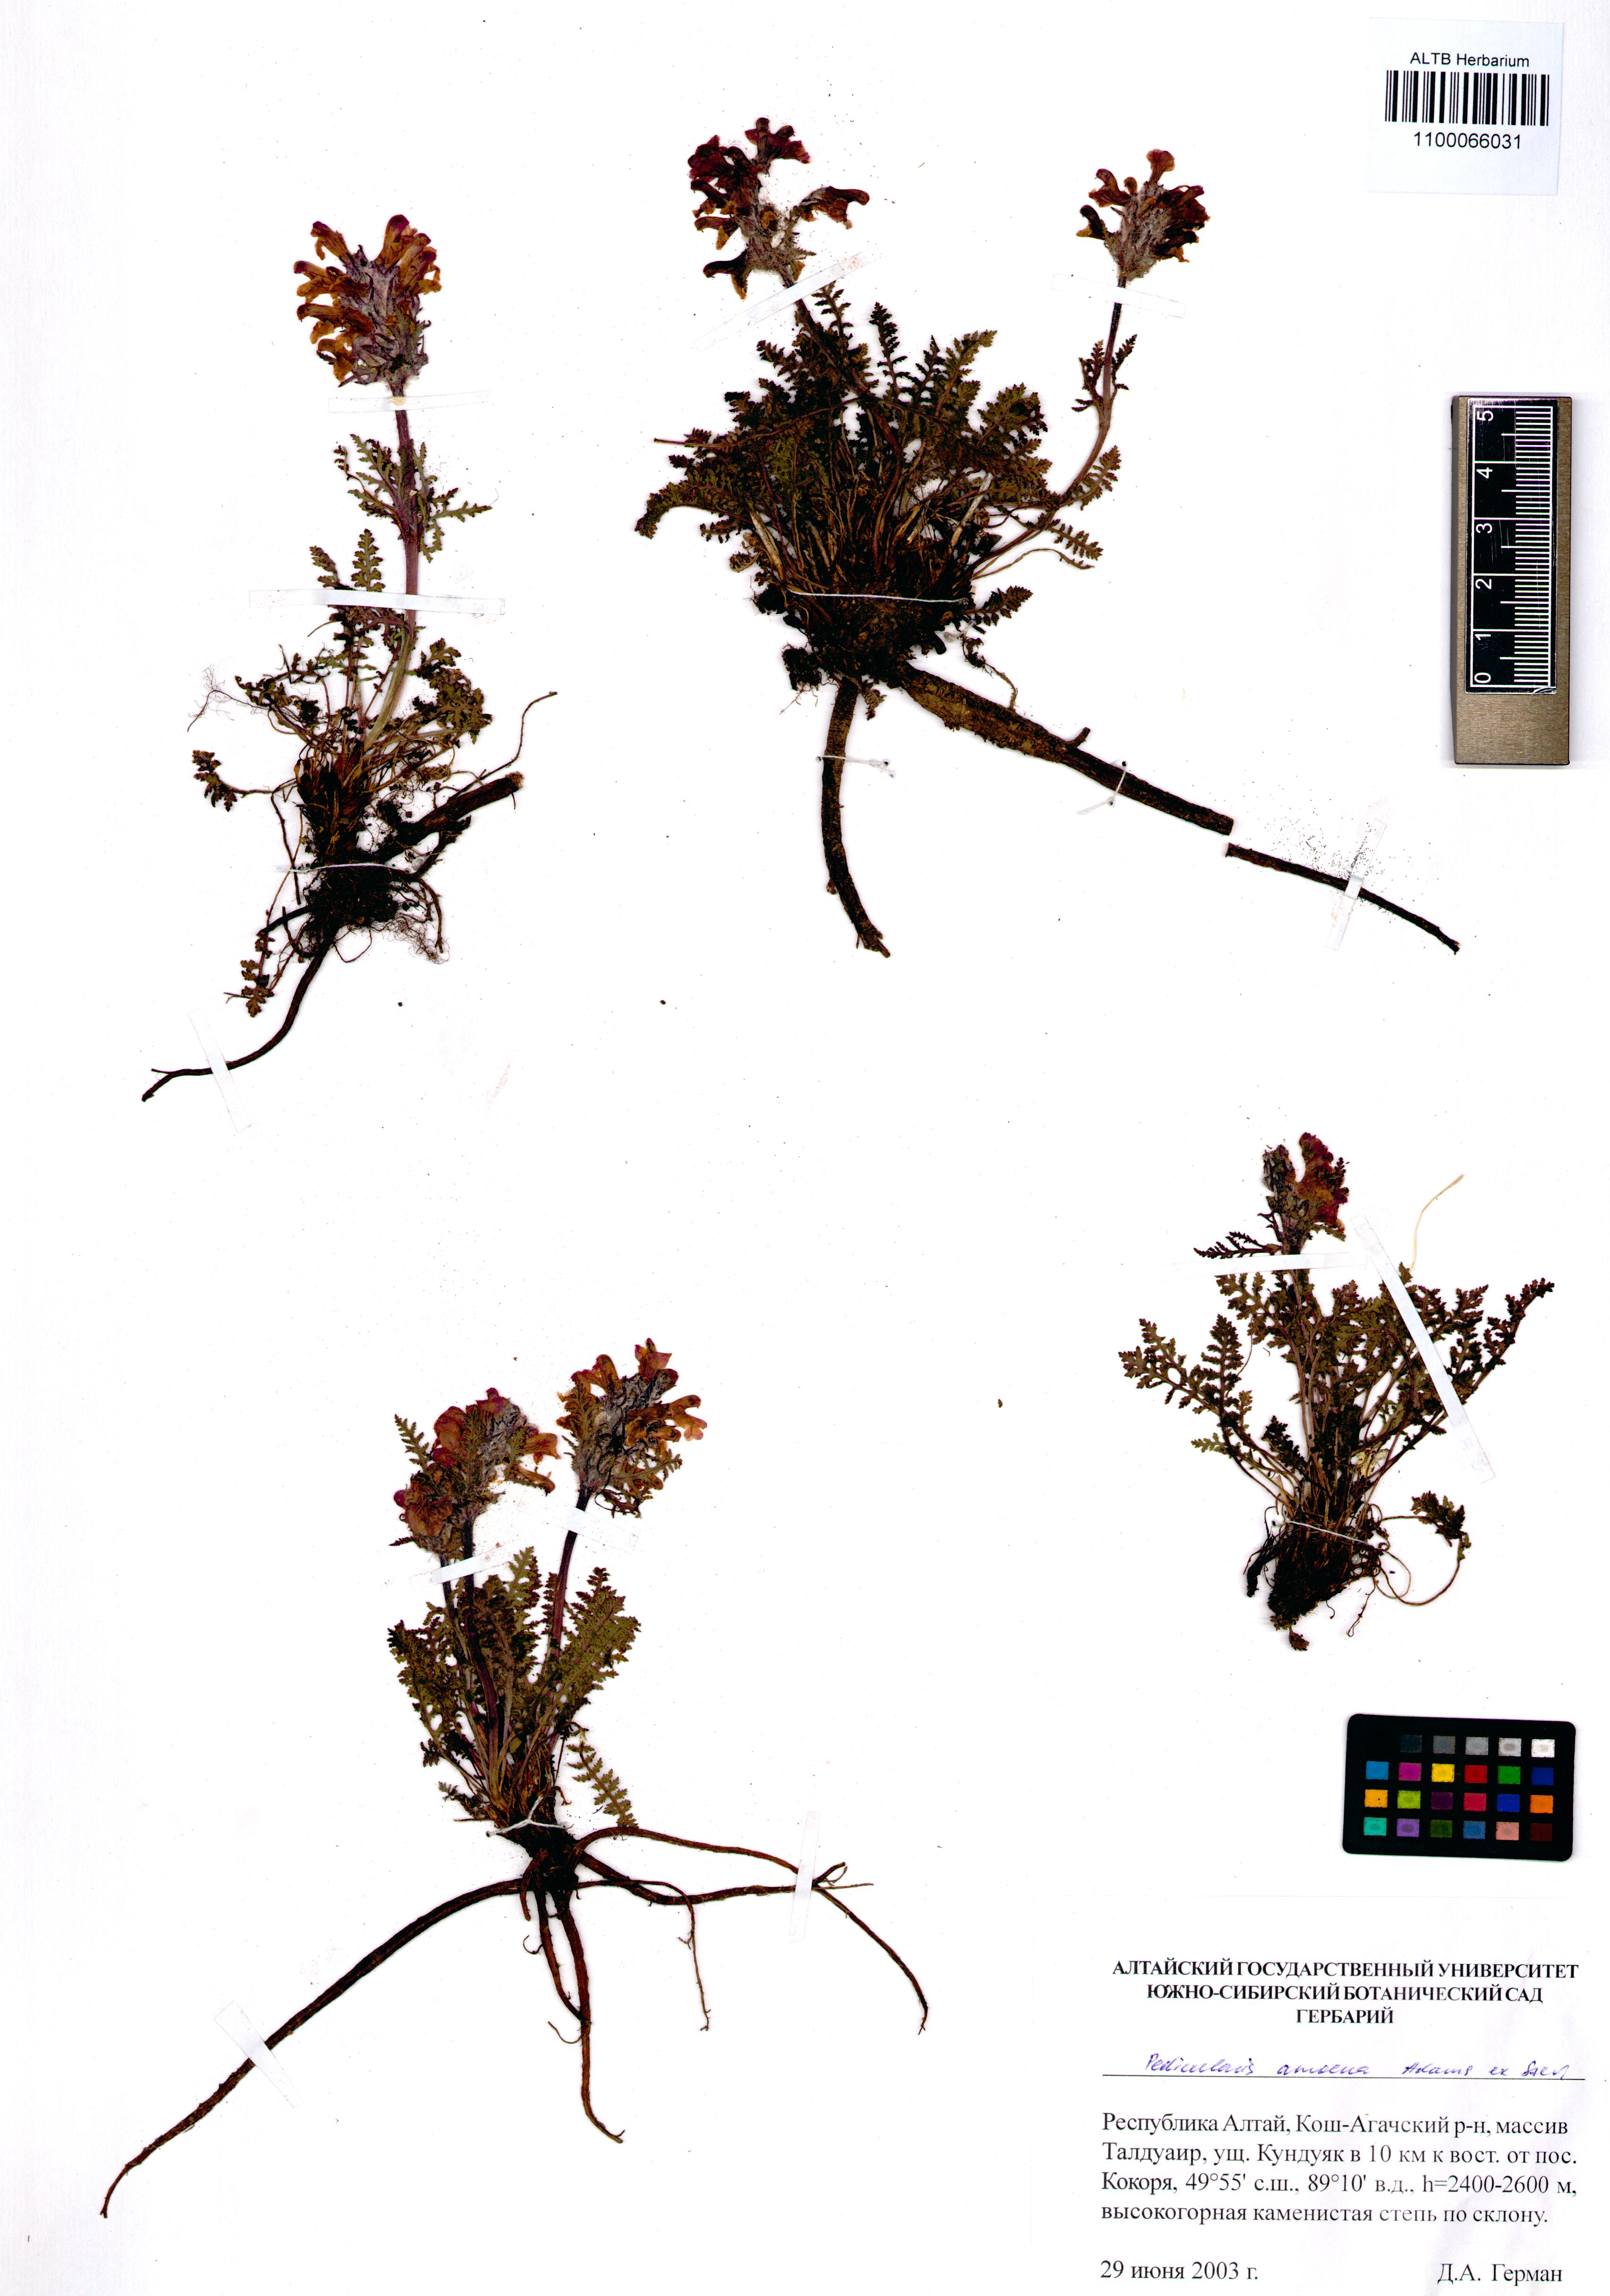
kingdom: Plantae
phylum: Tracheophyta
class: Magnoliopsida
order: Lamiales
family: Orobanchaceae
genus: Pedicularis
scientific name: Pedicularis amoena
